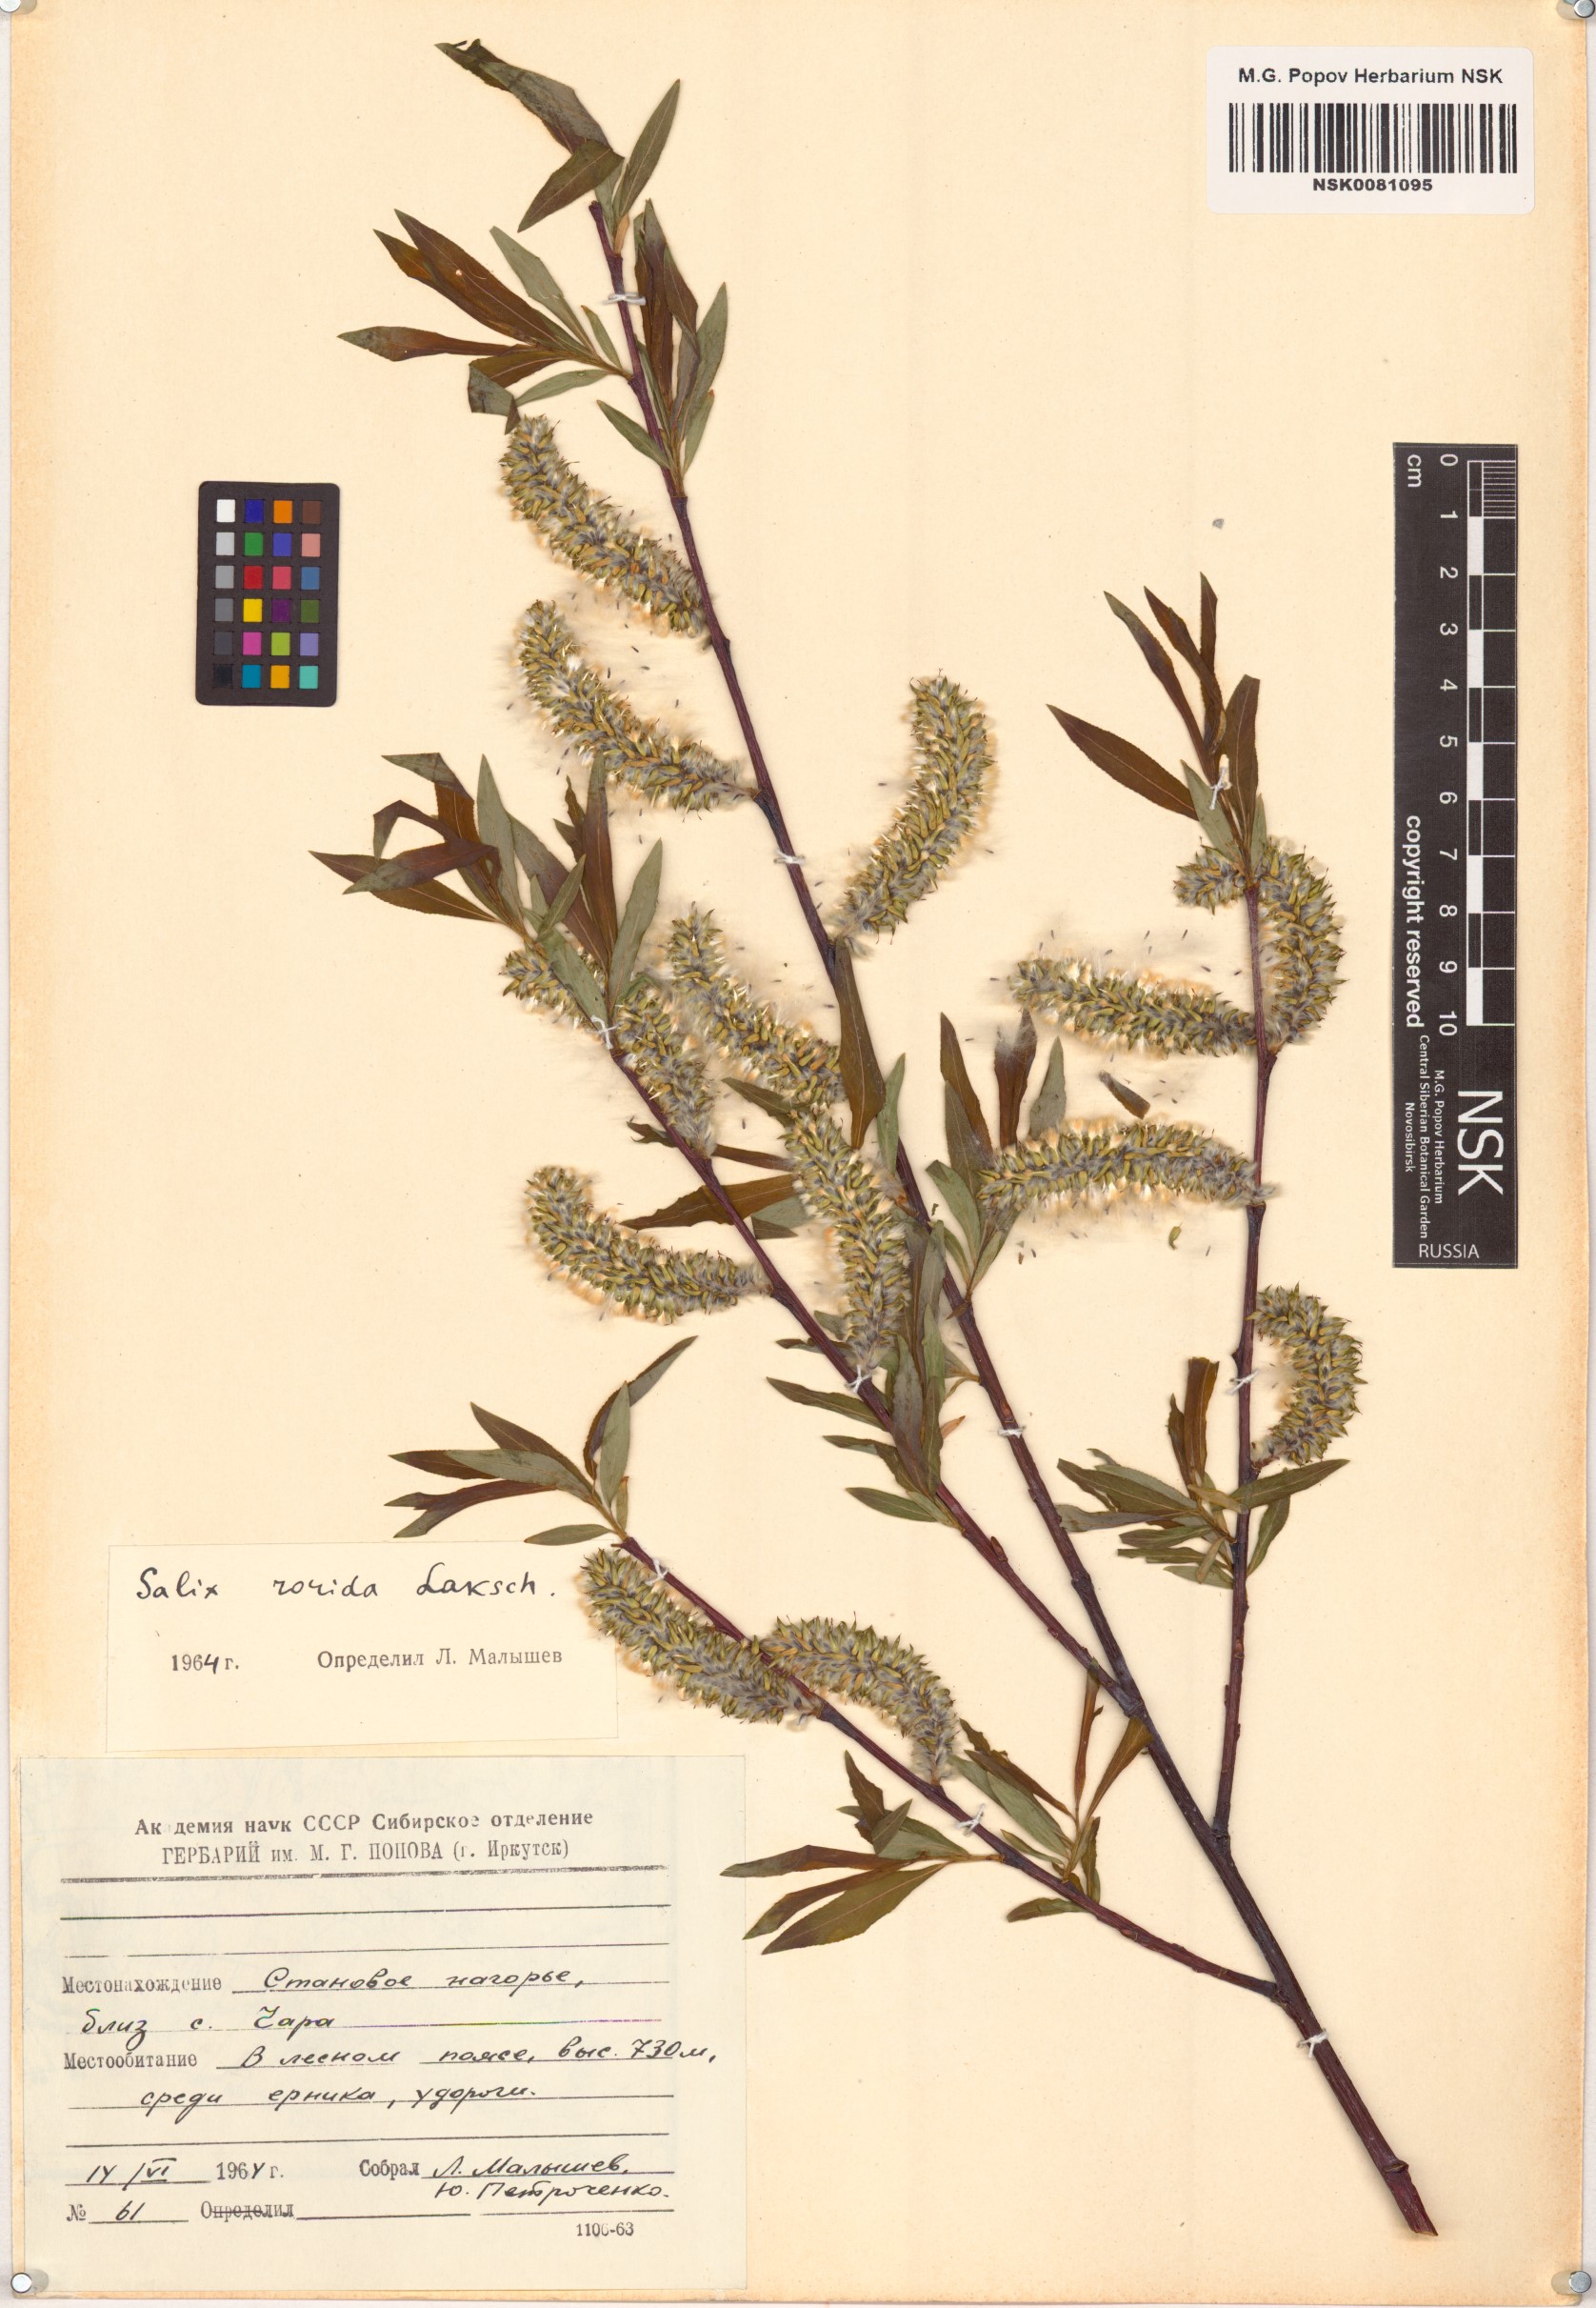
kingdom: Plantae
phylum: Tracheophyta
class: Magnoliopsida
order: Malpighiales
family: Salicaceae
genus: Salix
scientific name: Salix rorida
